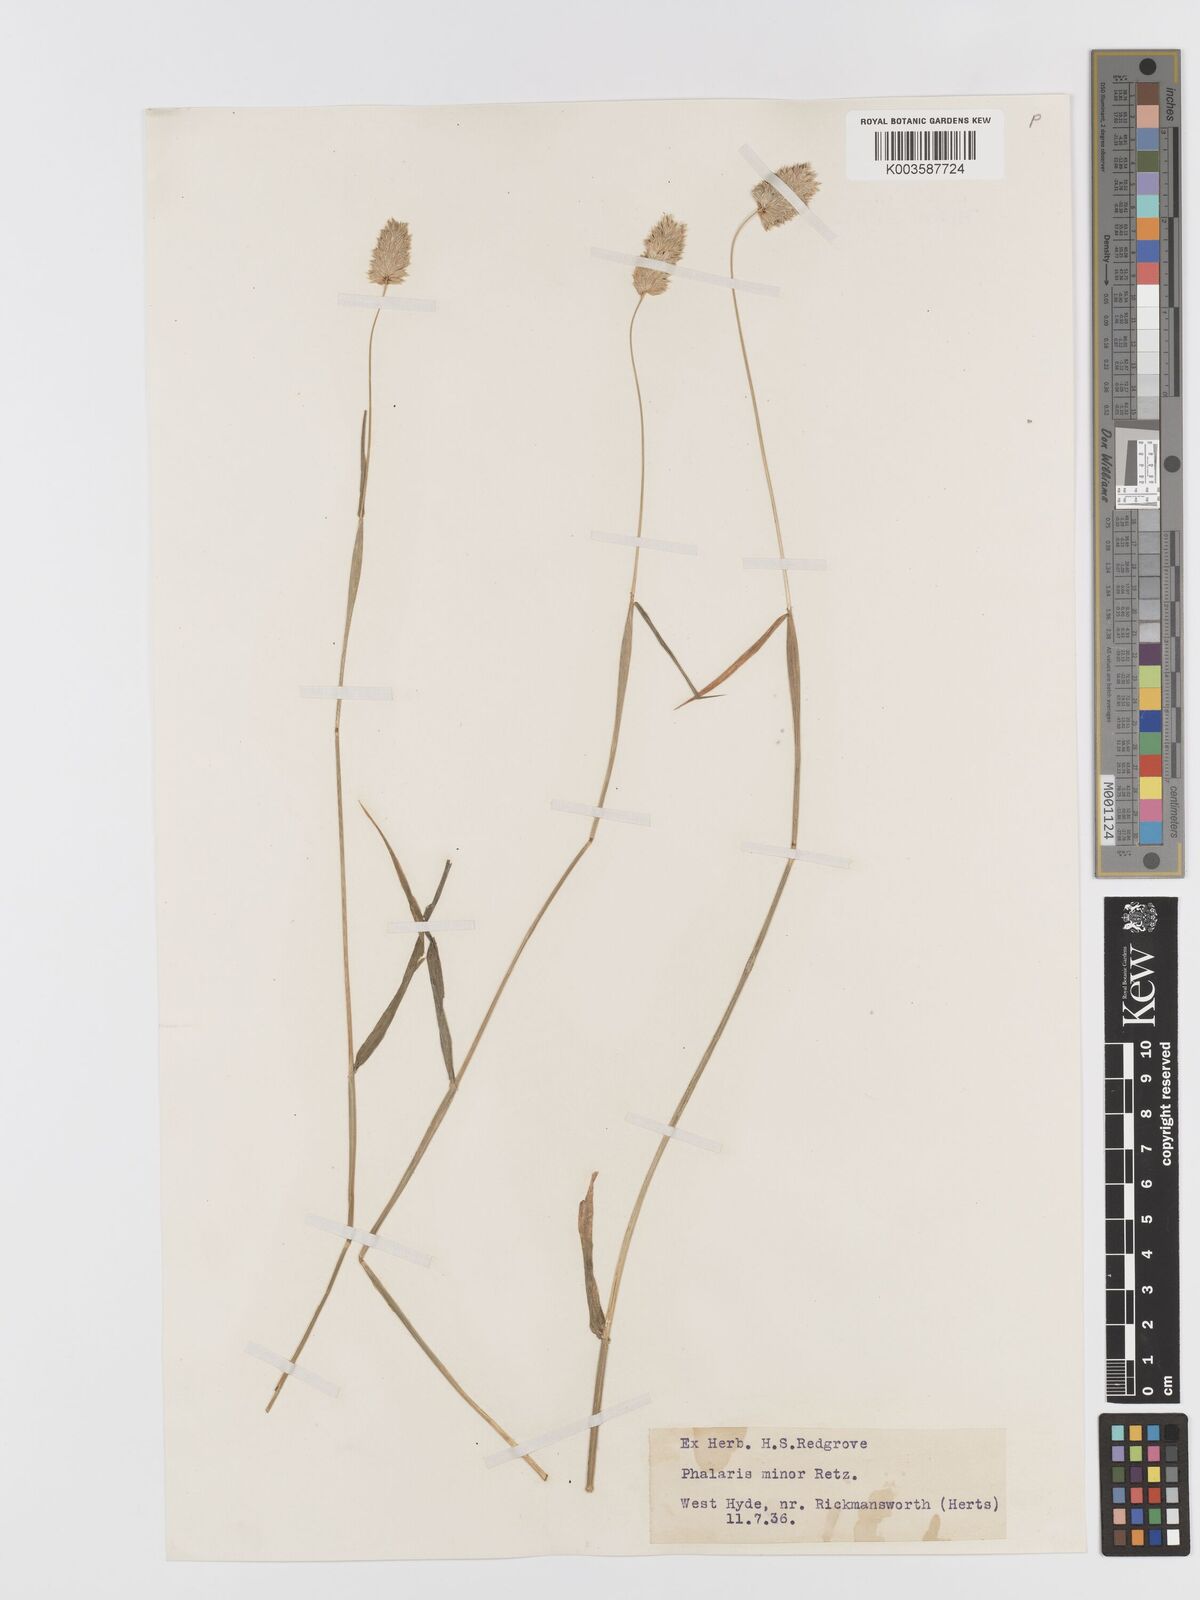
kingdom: Plantae
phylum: Tracheophyta
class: Liliopsida
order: Poales
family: Poaceae
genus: Phalaris
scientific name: Phalaris minor
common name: Littleseed canarygrass
